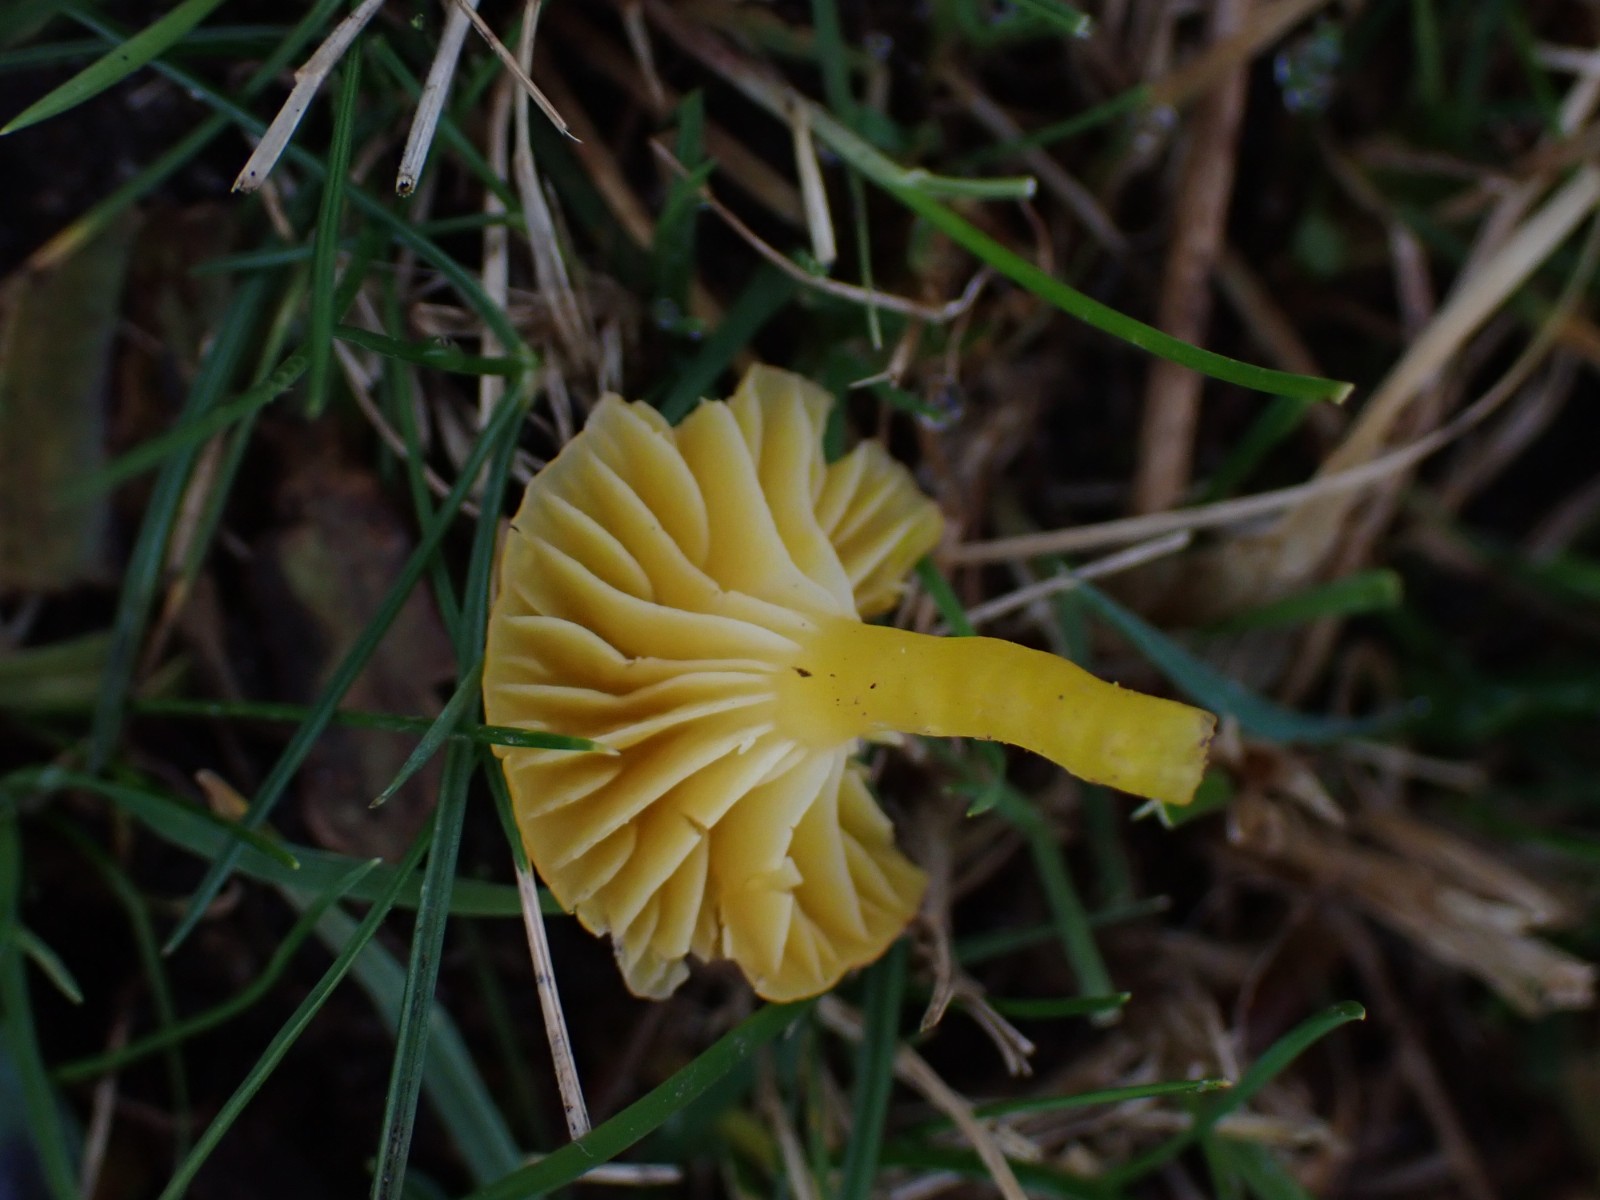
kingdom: Fungi
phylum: Basidiomycota
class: Agaricomycetes
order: Agaricales
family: Hygrophoraceae
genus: Hygrocybe
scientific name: Hygrocybe ceracea
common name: voksgul vokshat
